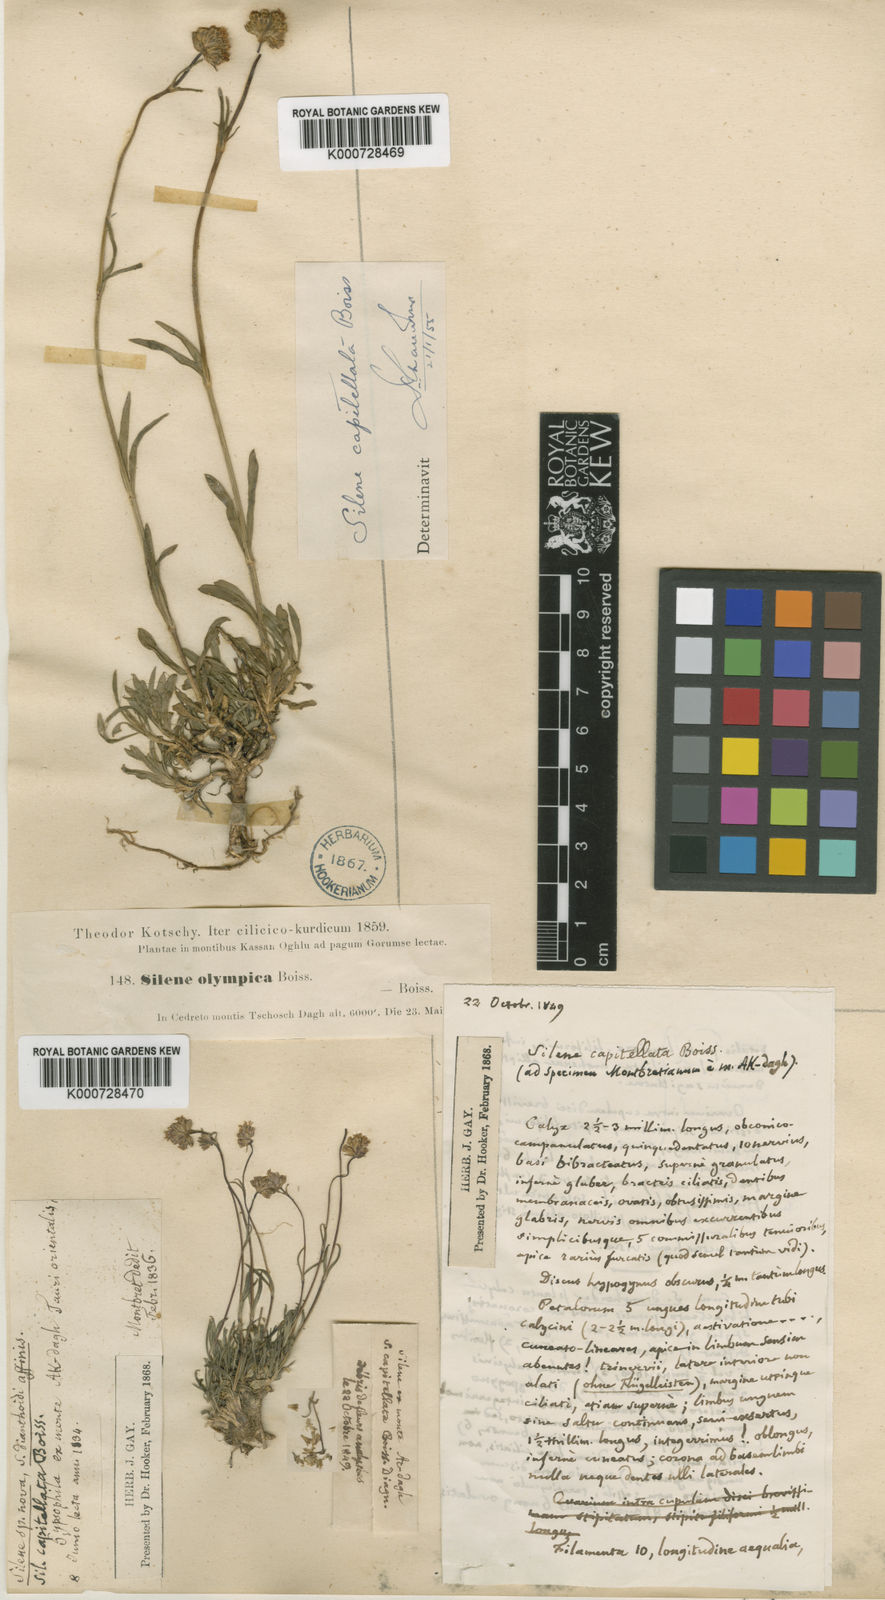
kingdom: Plantae
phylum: Tracheophyta
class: Magnoliopsida
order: Caryophyllales
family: Caryophyllaceae
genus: Silene
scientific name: Silene capitellata
